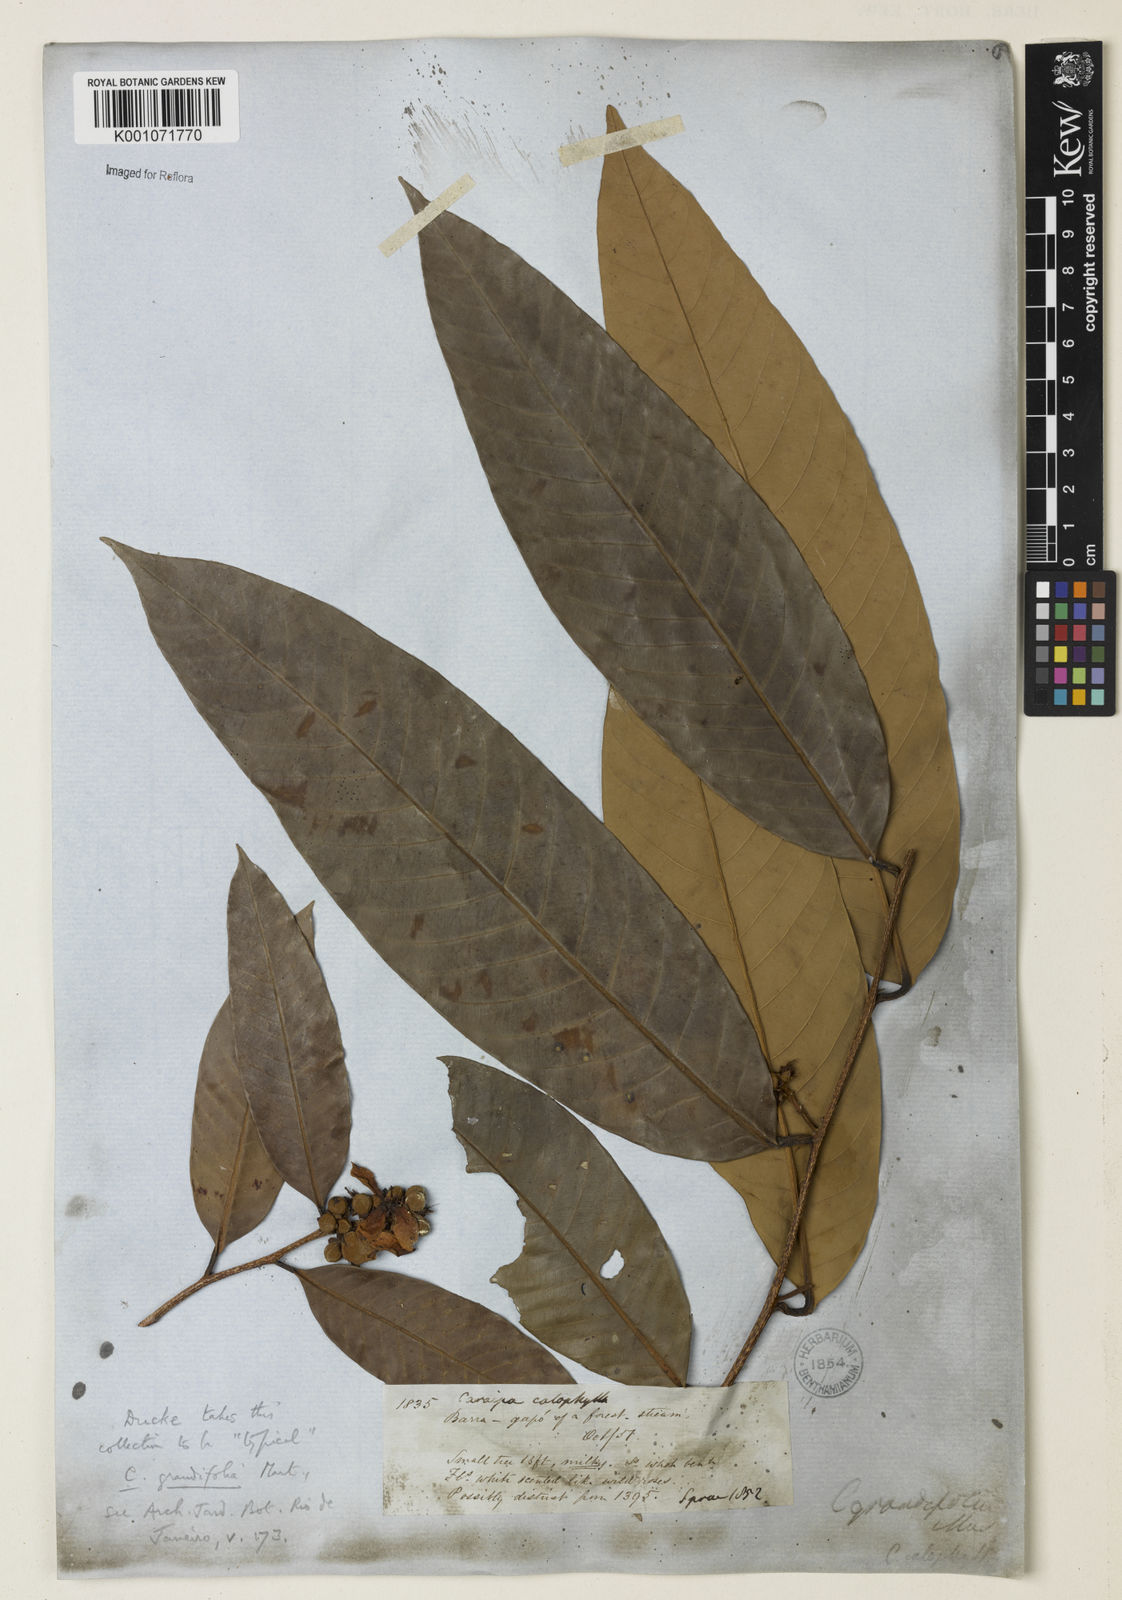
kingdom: Plantae
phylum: Tracheophyta
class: Magnoliopsida
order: Malpighiales
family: Calophyllaceae
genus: Caraipa
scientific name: Caraipa grandifolia
